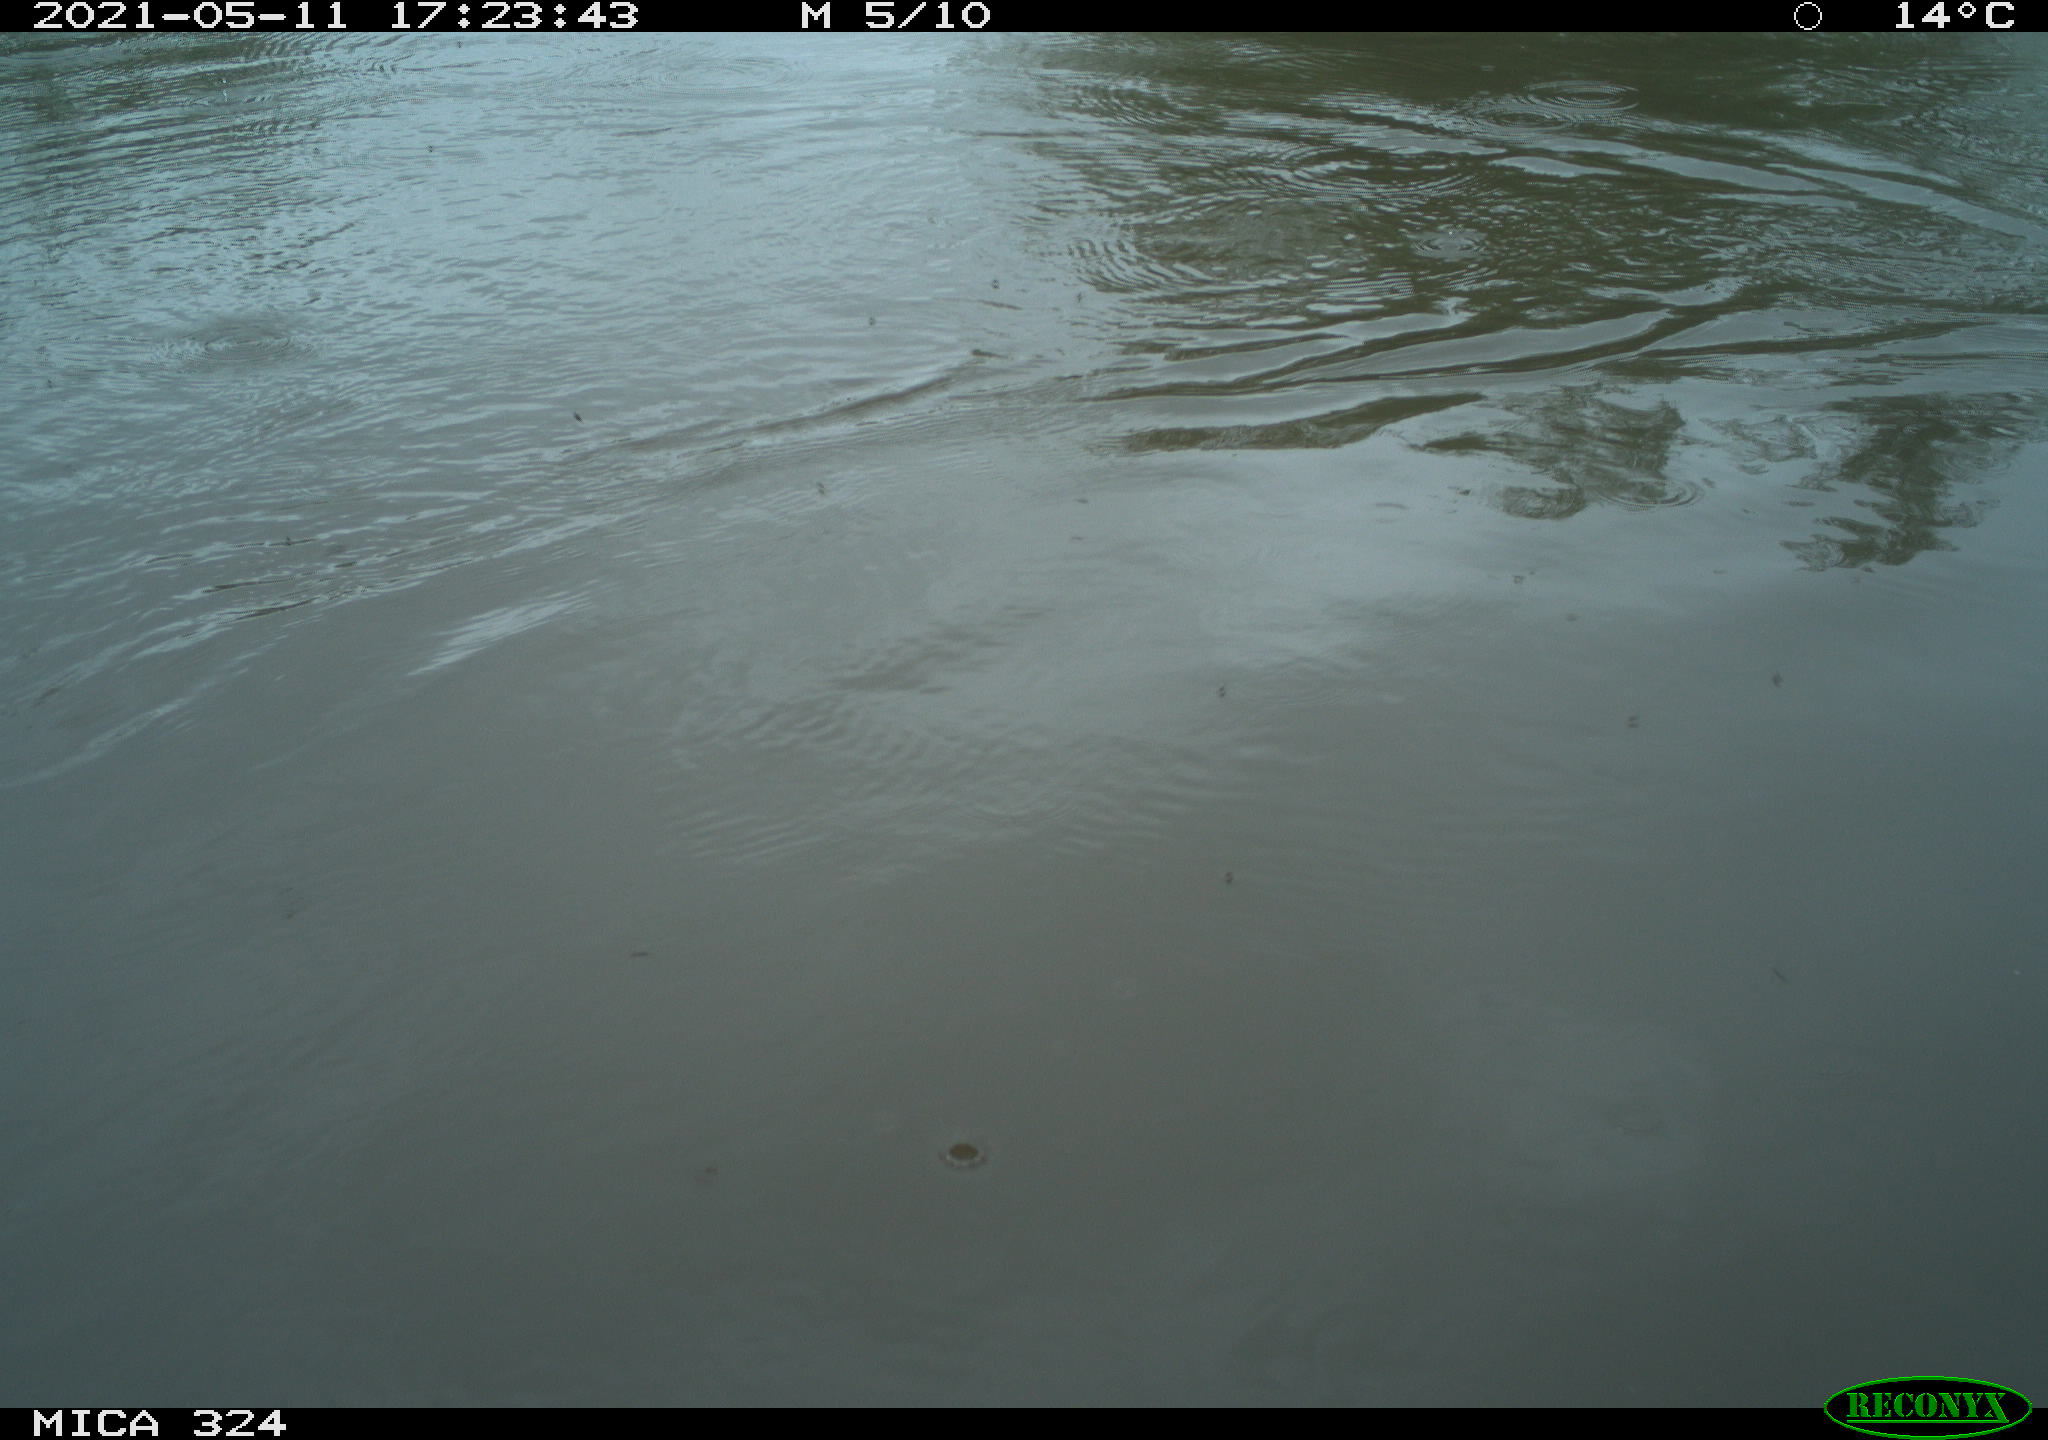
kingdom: Animalia
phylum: Chordata
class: Aves
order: Anseriformes
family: Anatidae
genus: Anas
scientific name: Anas platyrhynchos
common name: Mallard
